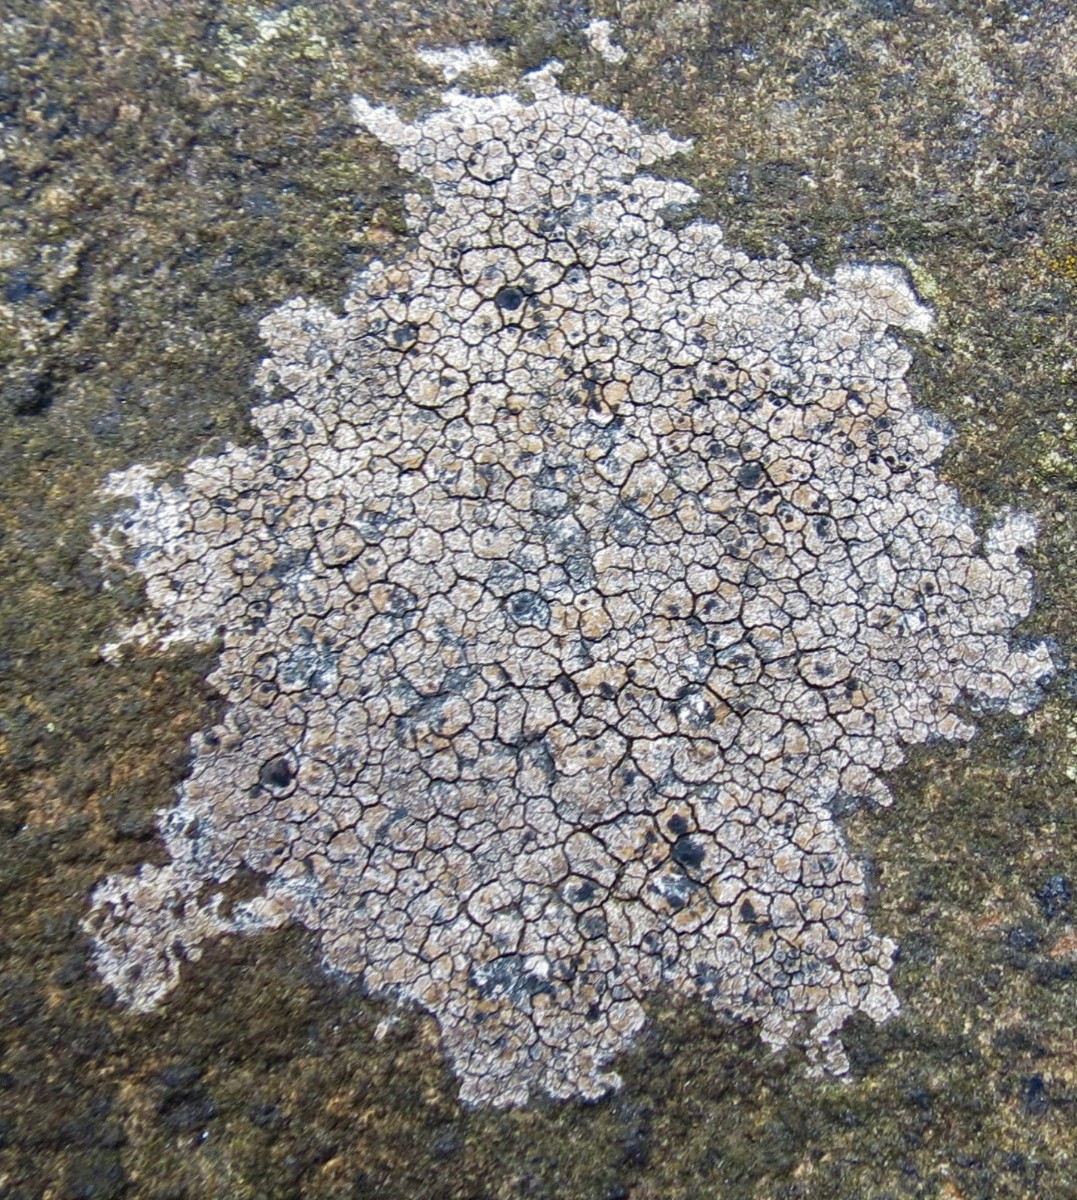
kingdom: Fungi
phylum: Ascomycota
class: Lecanoromycetes
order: Lecideales
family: Lecideaceae
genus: Lecidea
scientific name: Lecidea fuscoatra
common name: rudret skivelav
